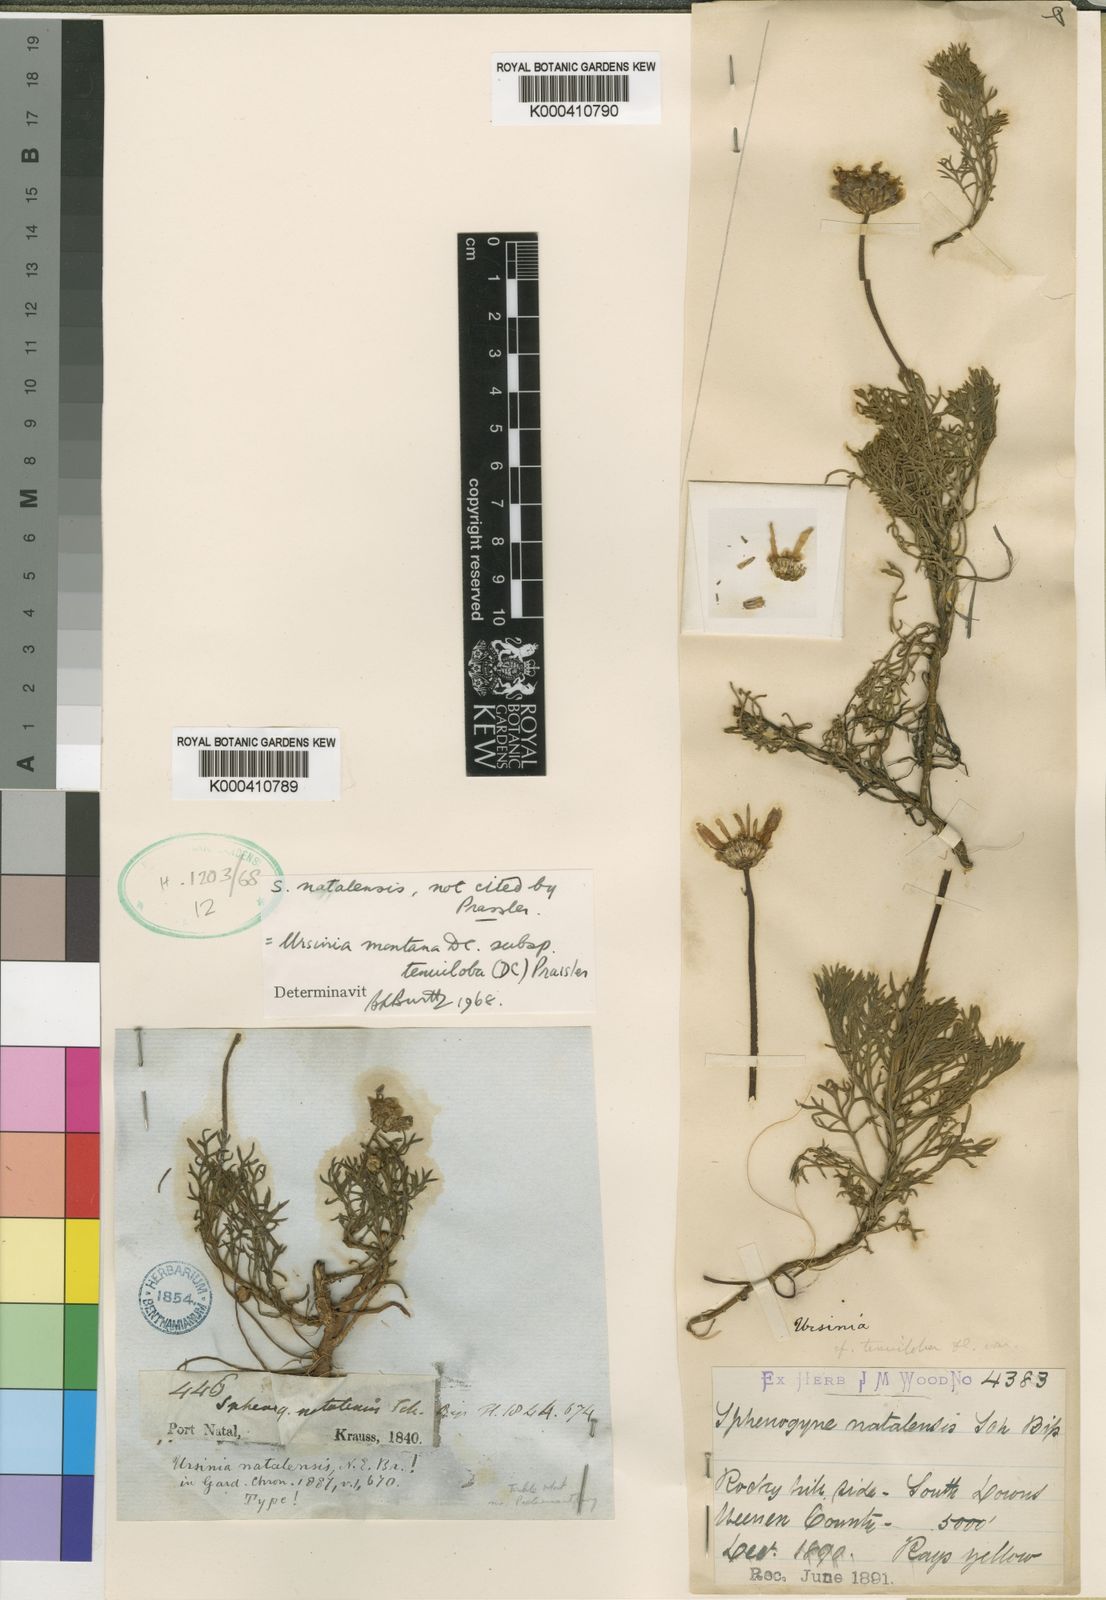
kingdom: Plantae
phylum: Tracheophyta
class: Magnoliopsida
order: Asterales
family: Asteraceae
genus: Ursinia
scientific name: Ursinia montana
